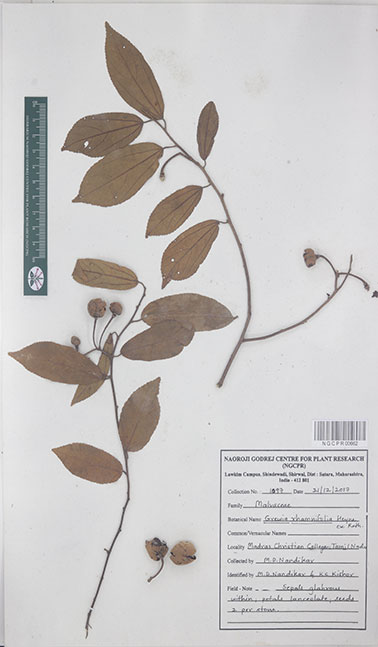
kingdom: Plantae
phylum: Tracheophyta
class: Magnoliopsida
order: Malvales
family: Malvaceae
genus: Grewia
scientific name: Grewia rhamnifolia
